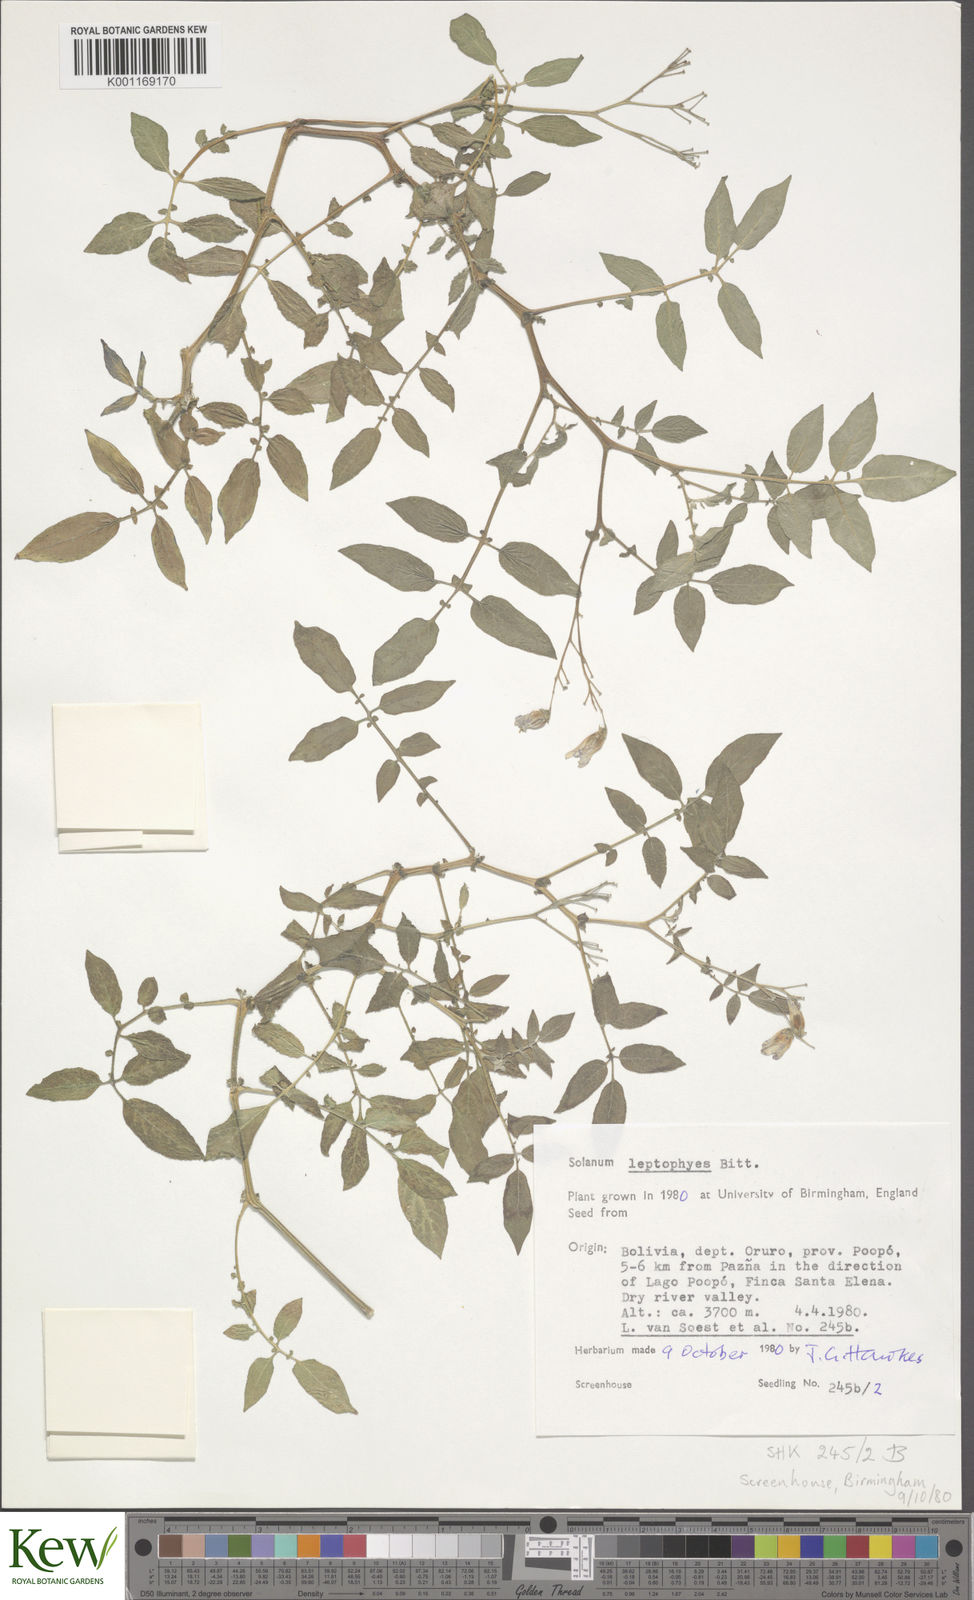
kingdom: Plantae
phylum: Tracheophyta
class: Magnoliopsida
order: Solanales
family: Solanaceae
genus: Solanum
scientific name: Solanum brevicaule
